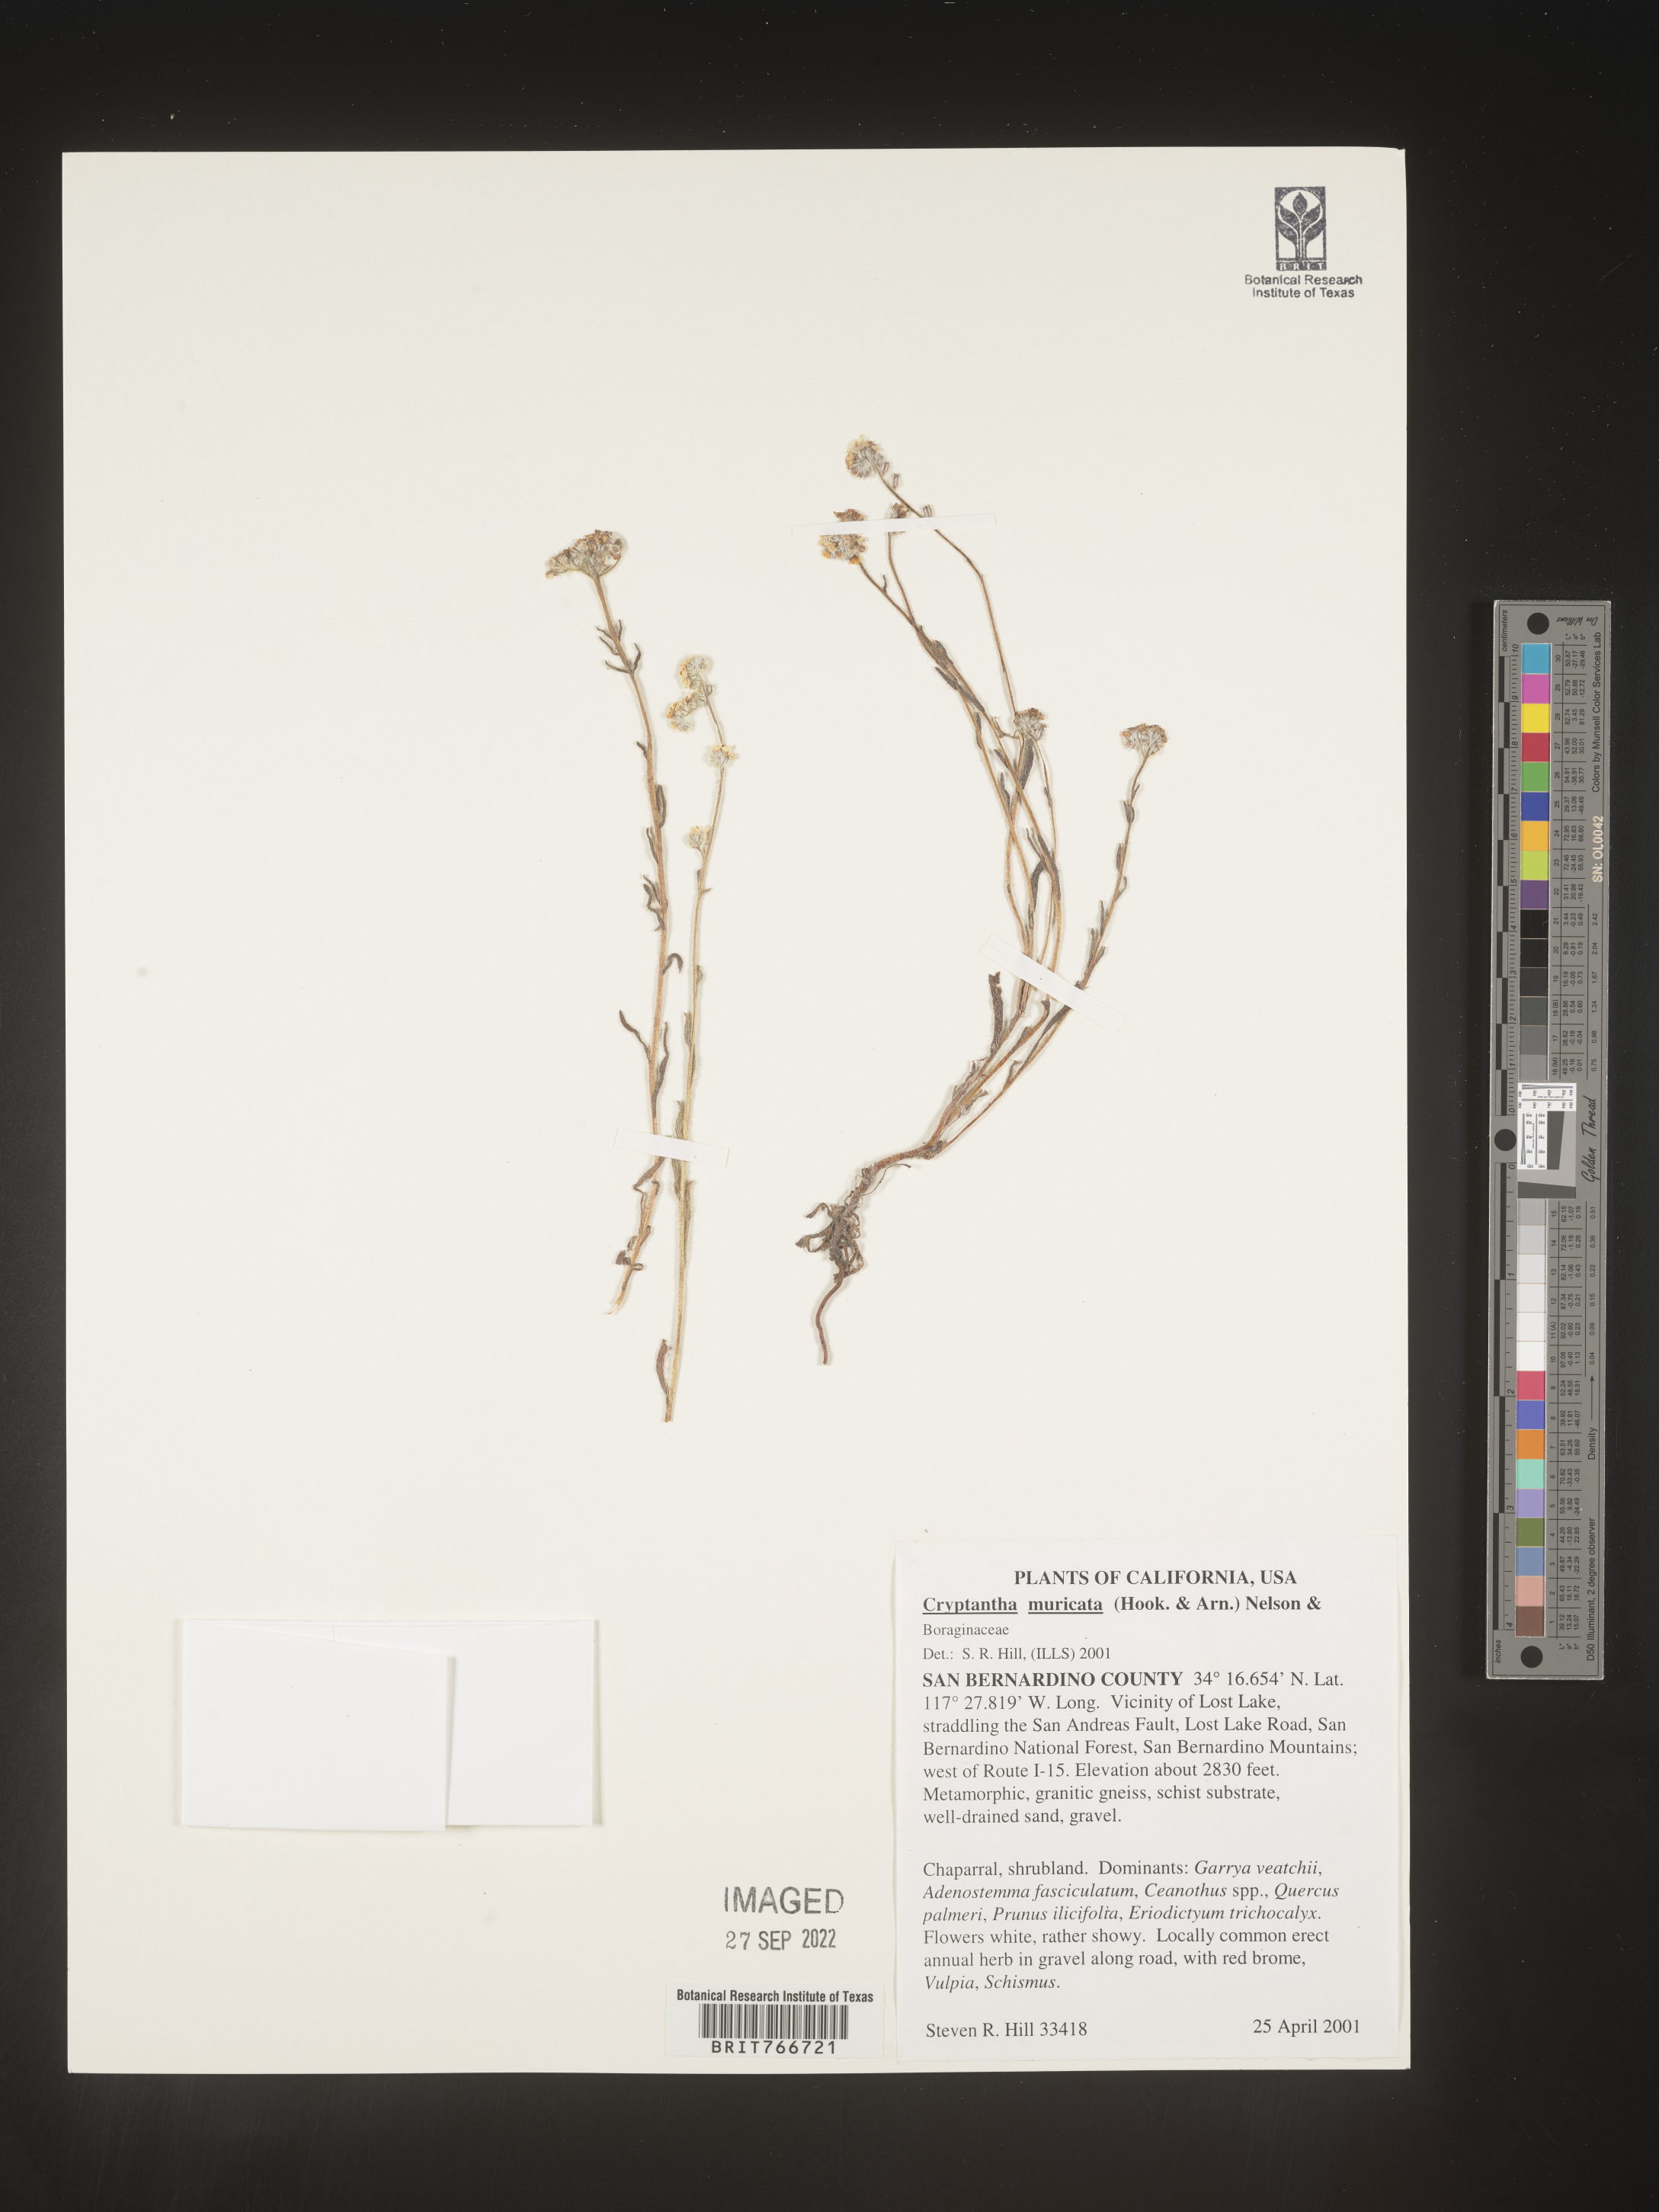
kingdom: Plantae
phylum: Tracheophyta
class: Magnoliopsida
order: Boraginales
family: Boraginaceae
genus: Cryptantha
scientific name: Cryptantha muricata
